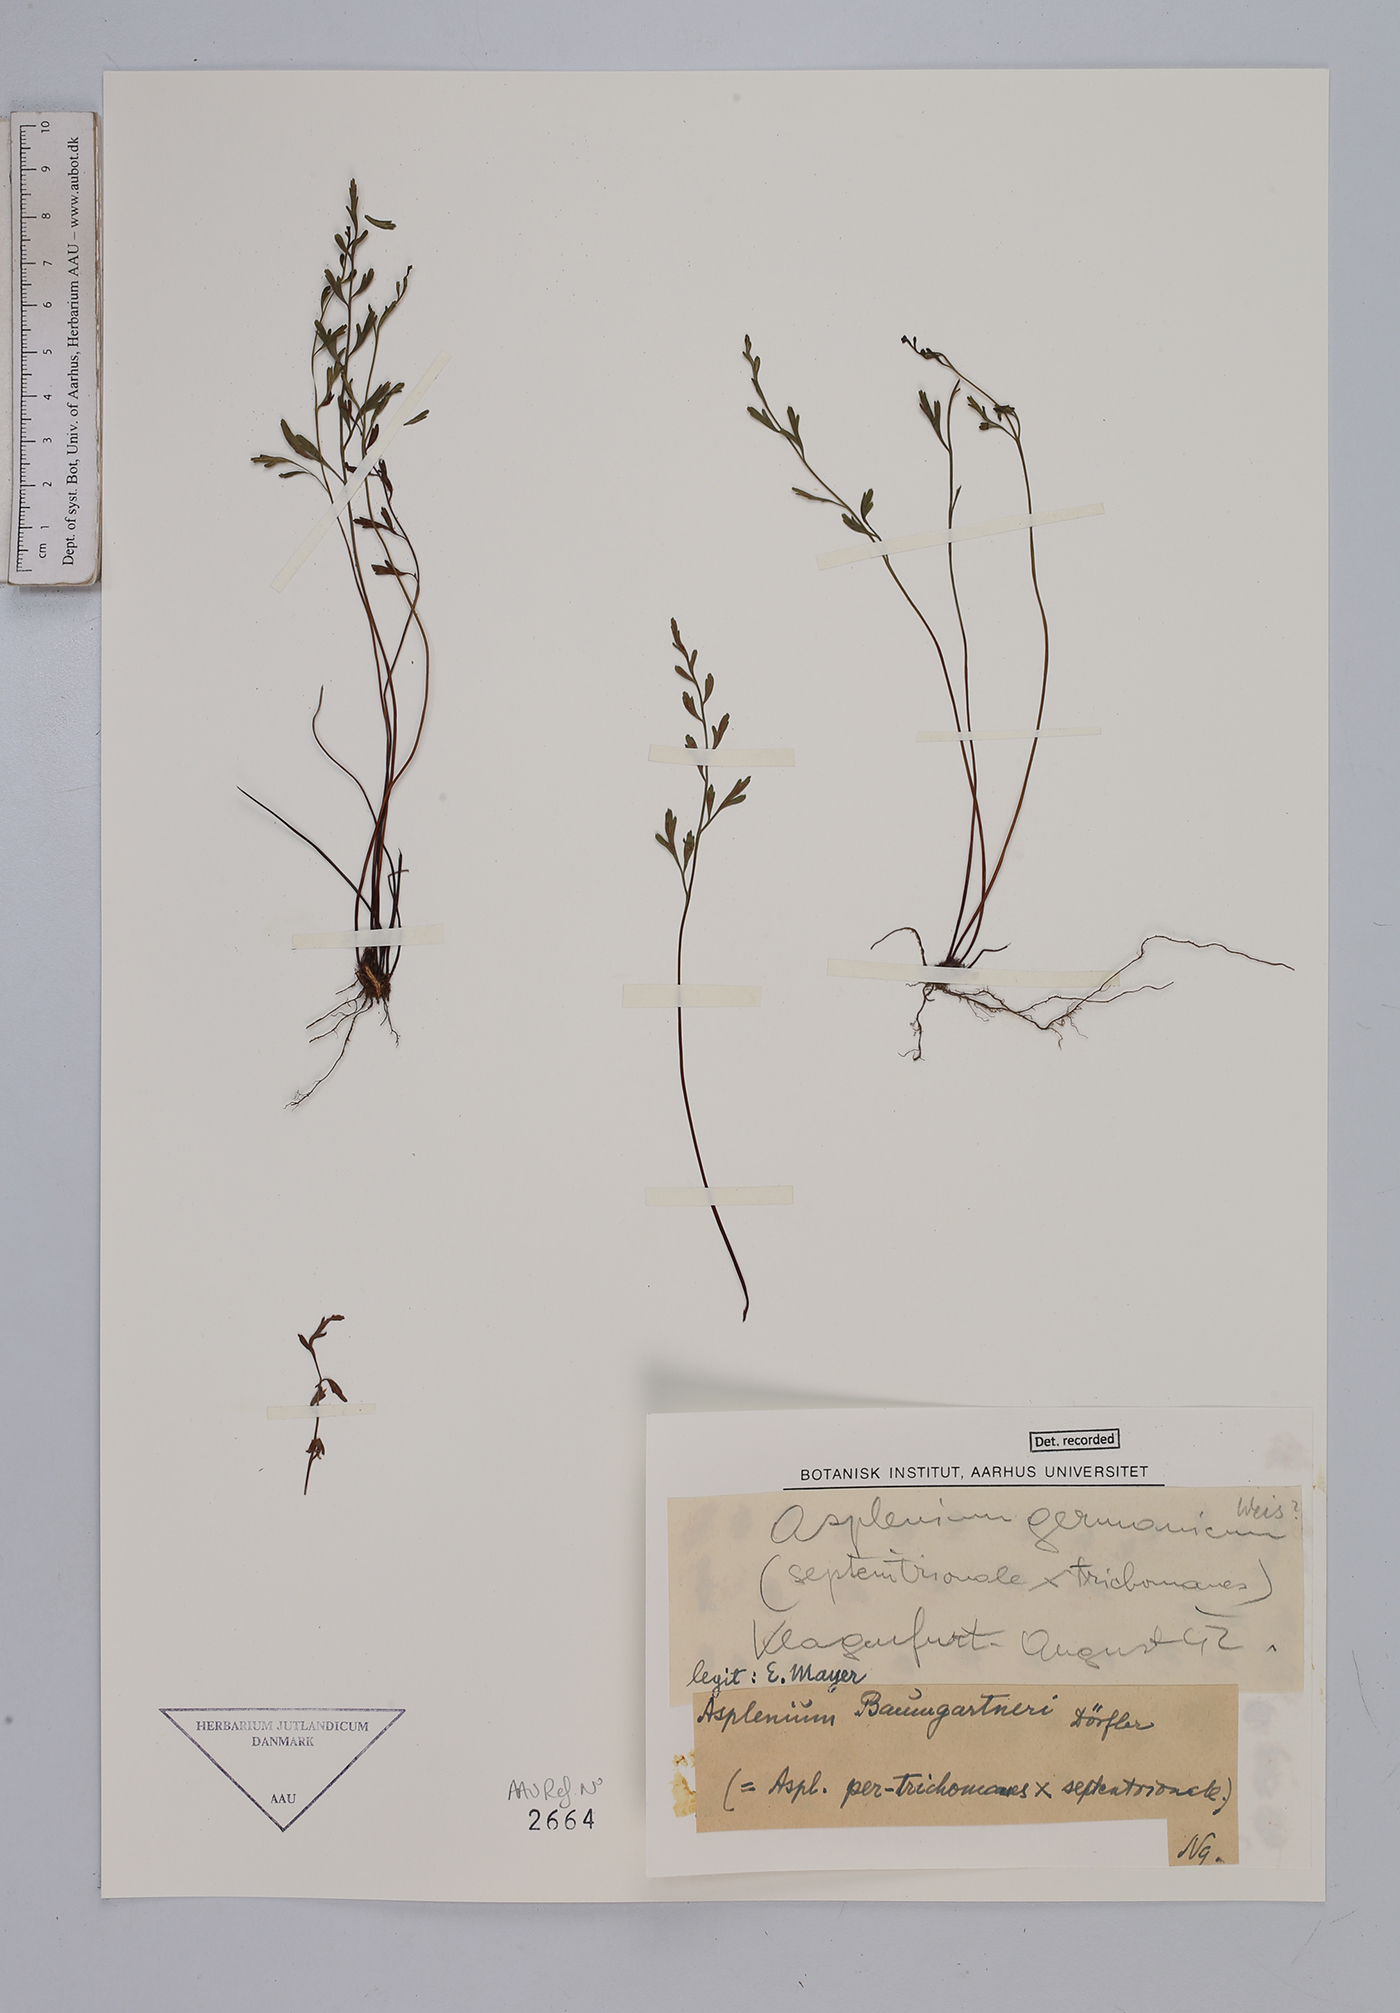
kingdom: Plantae
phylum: Tracheophyta
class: Polypodiopsida
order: Polypodiales
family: Aspleniaceae
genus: Asplenium
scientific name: Asplenium
